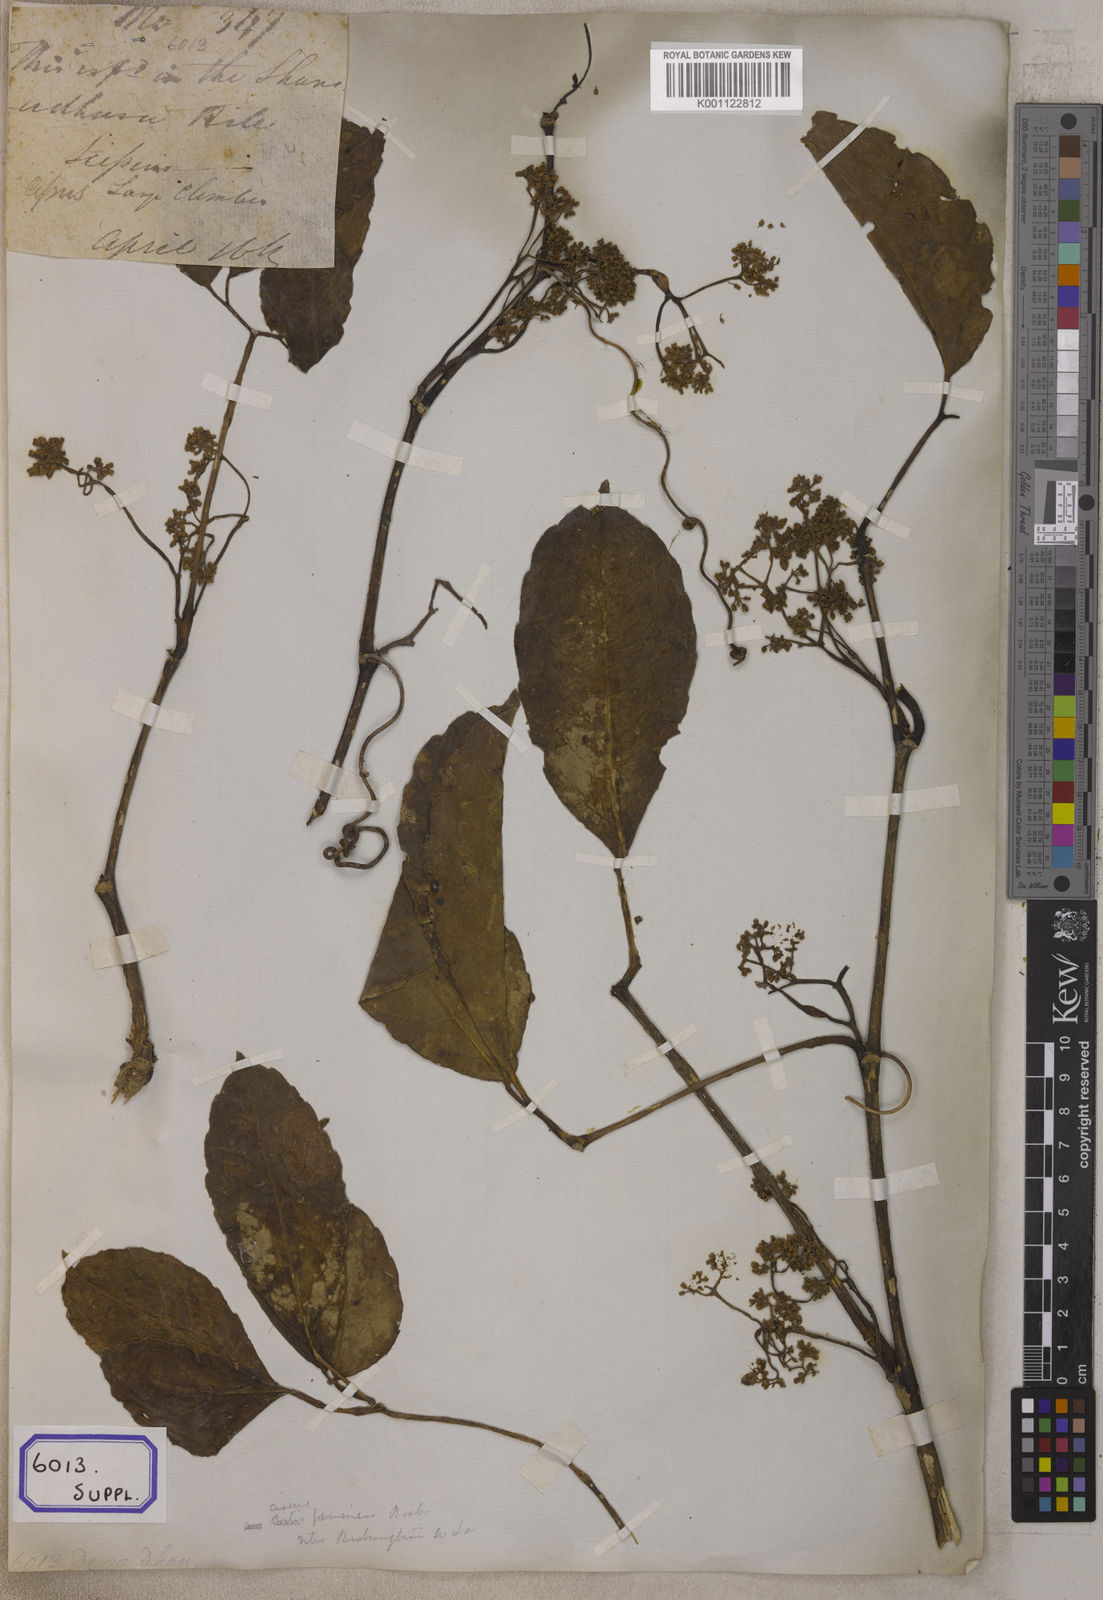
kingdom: Plantae
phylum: Tracheophyta
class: Magnoliopsida
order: Vitales
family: Vitaceae
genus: Vitis
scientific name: Vitis
